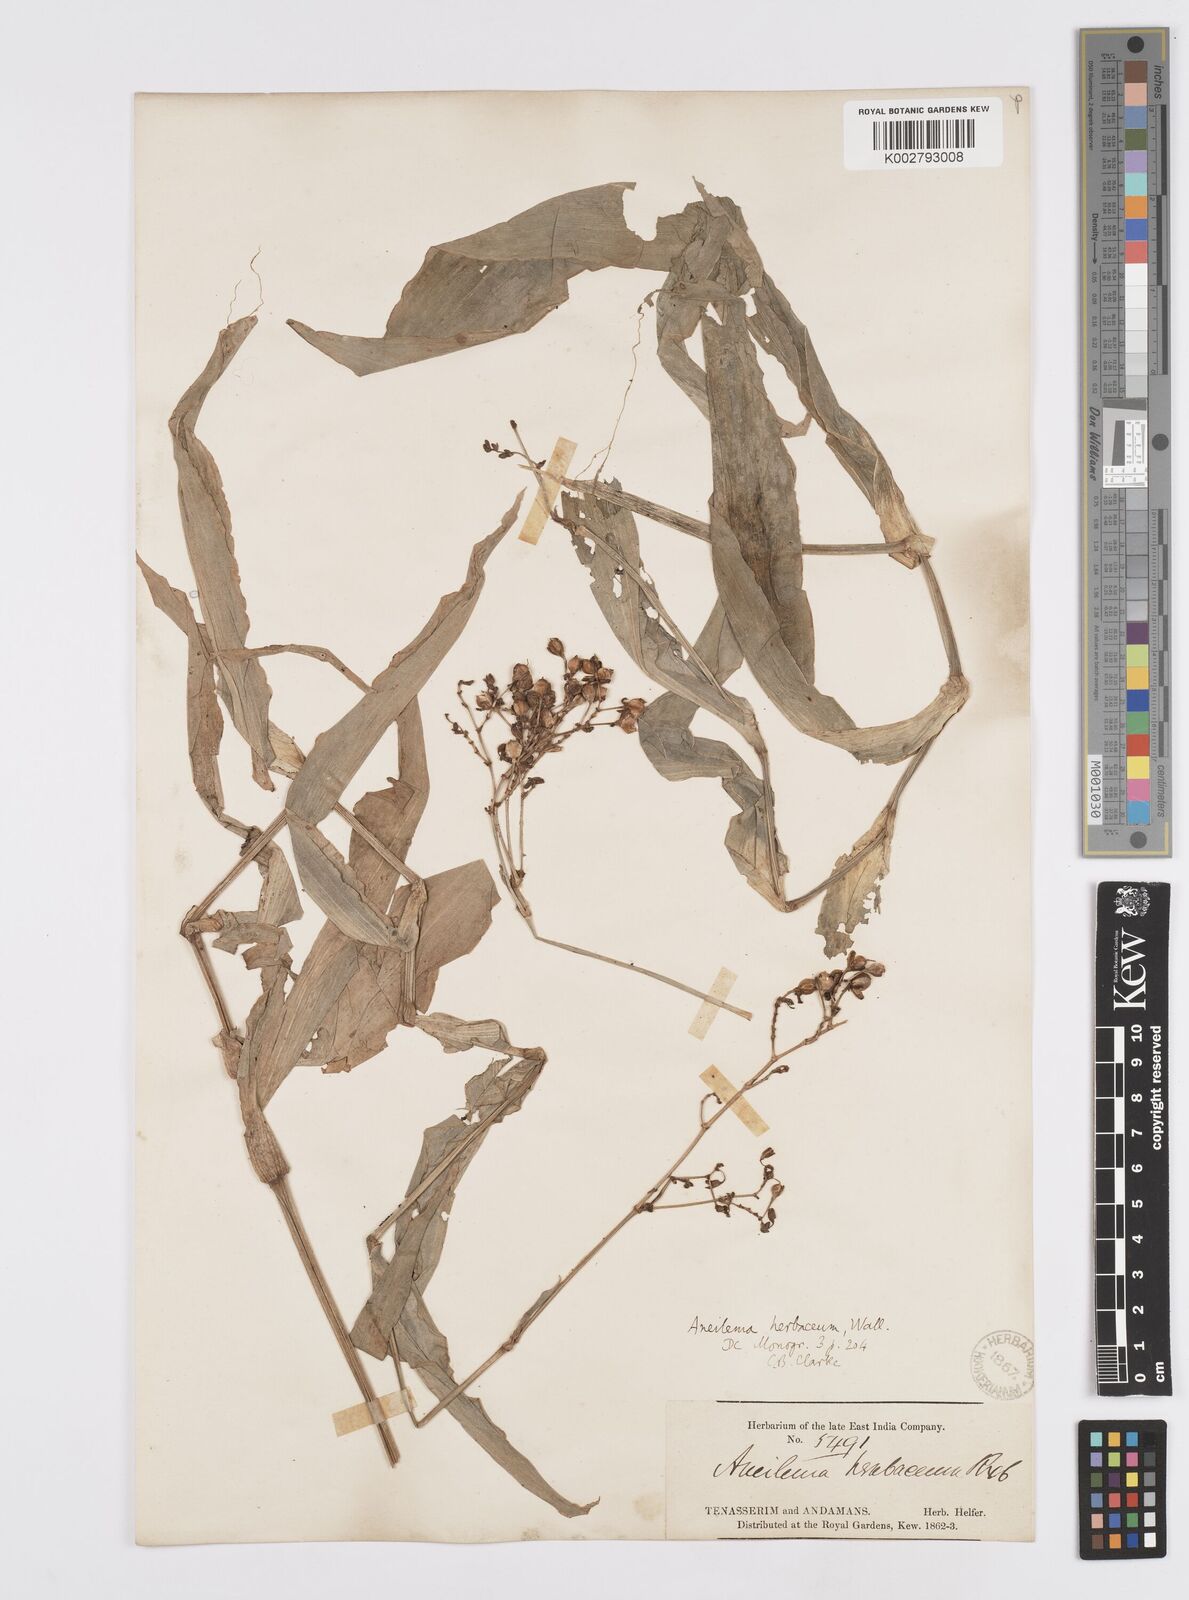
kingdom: Plantae
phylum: Tracheophyta
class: Liliopsida
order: Commelinales
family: Commelinaceae
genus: Murdannia
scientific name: Murdannia
